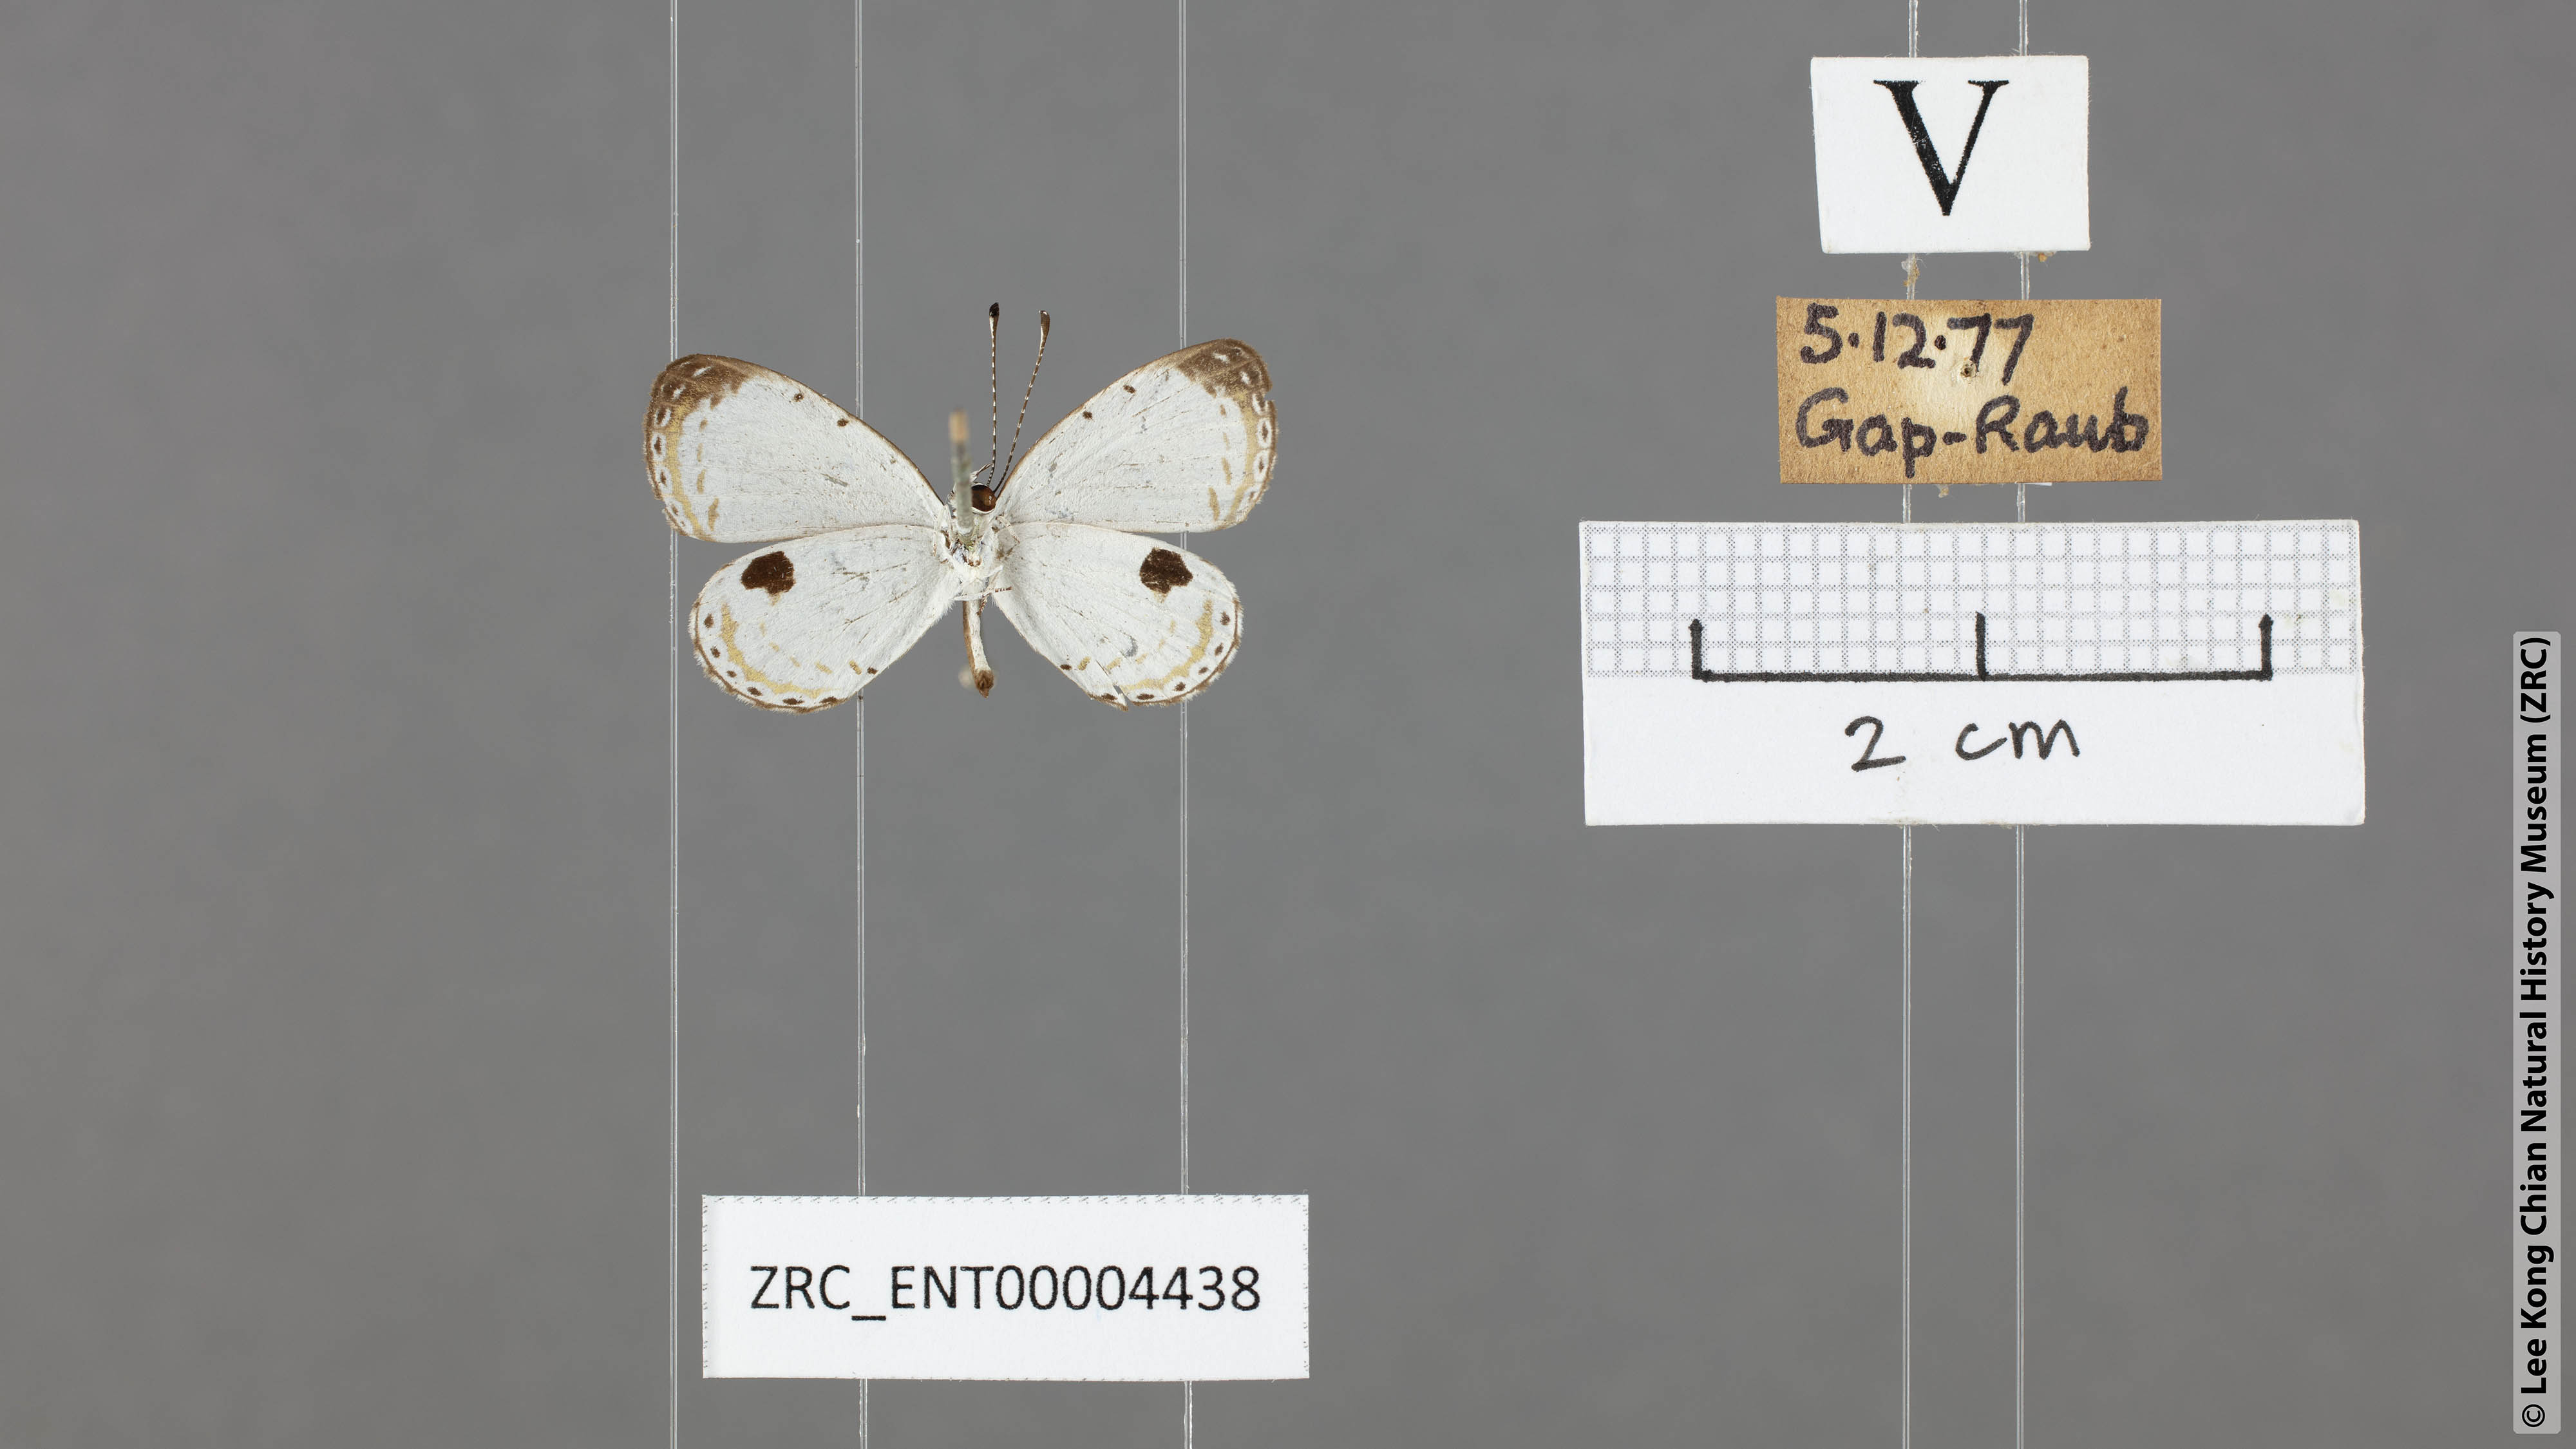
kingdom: Animalia
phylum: Arthropoda
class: Insecta
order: Lepidoptera
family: Lycaenidae
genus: Pithecops
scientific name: Pithecops corvus
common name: Forest quaker
